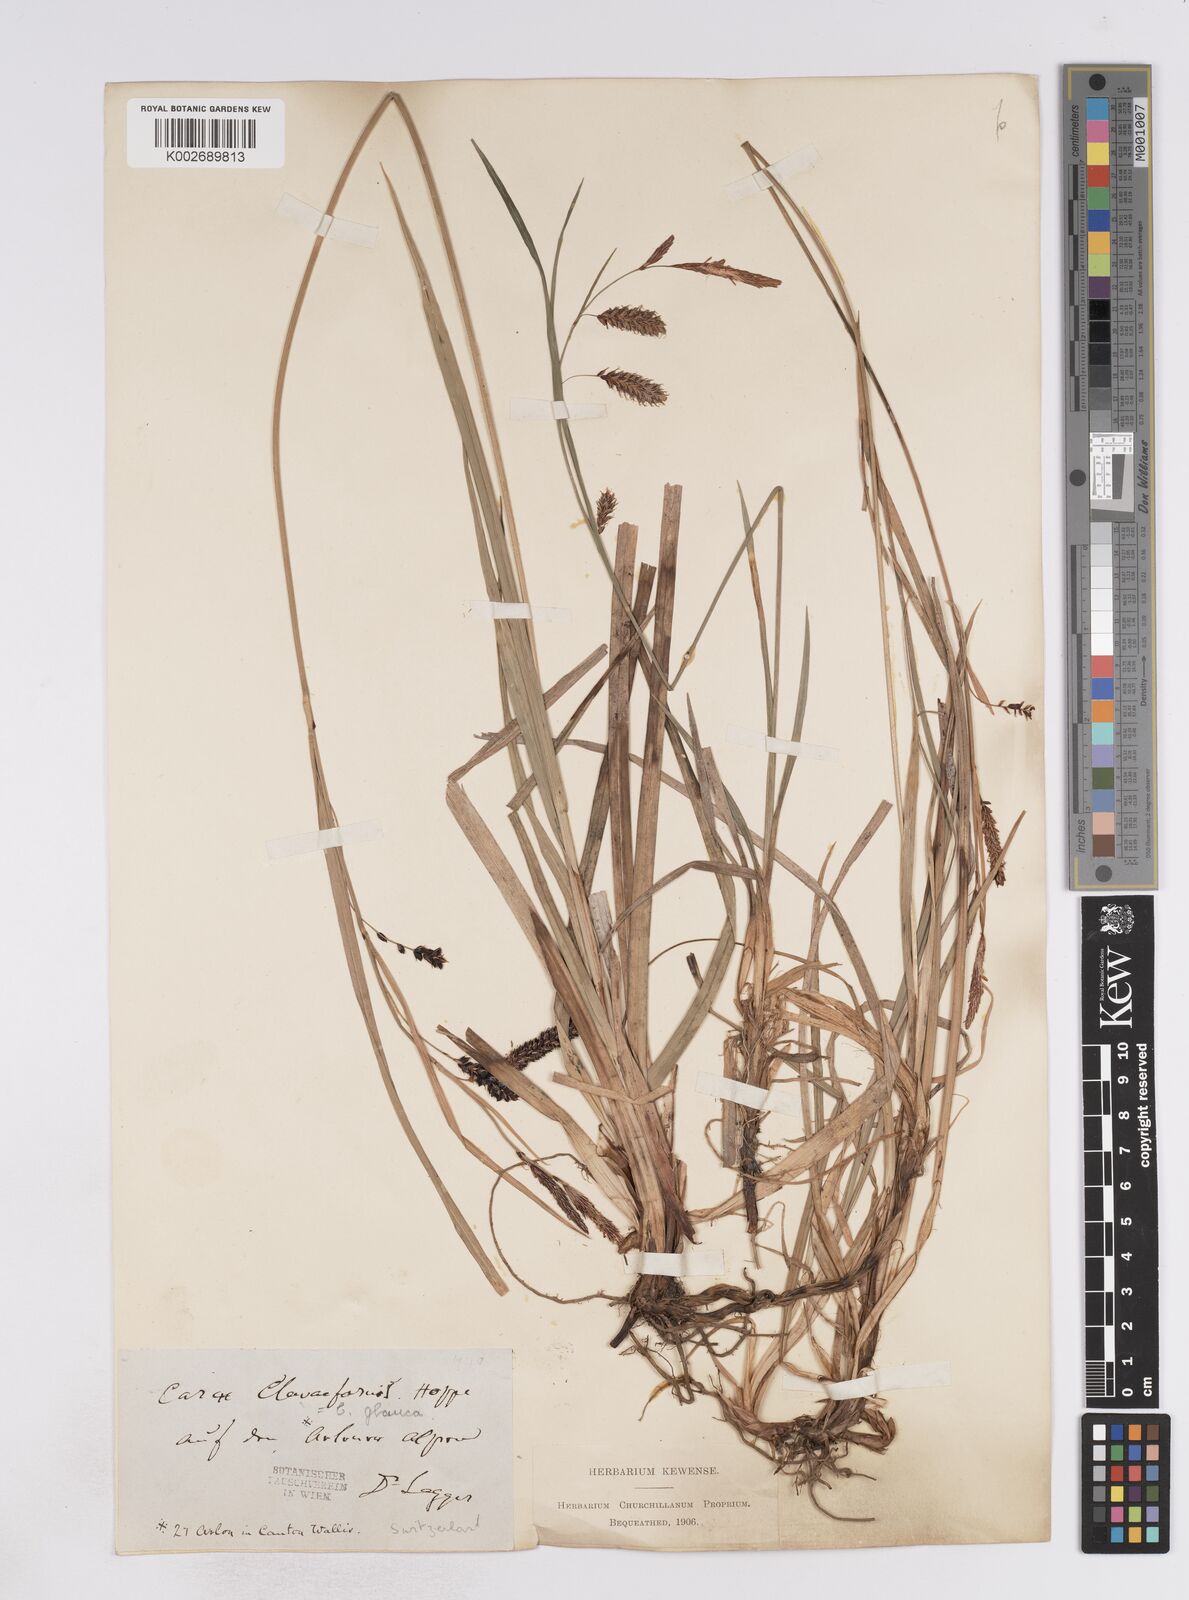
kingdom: Plantae
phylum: Tracheophyta
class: Liliopsida
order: Poales
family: Cyperaceae
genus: Carex
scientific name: Carex flacca
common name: Glaucous sedge
